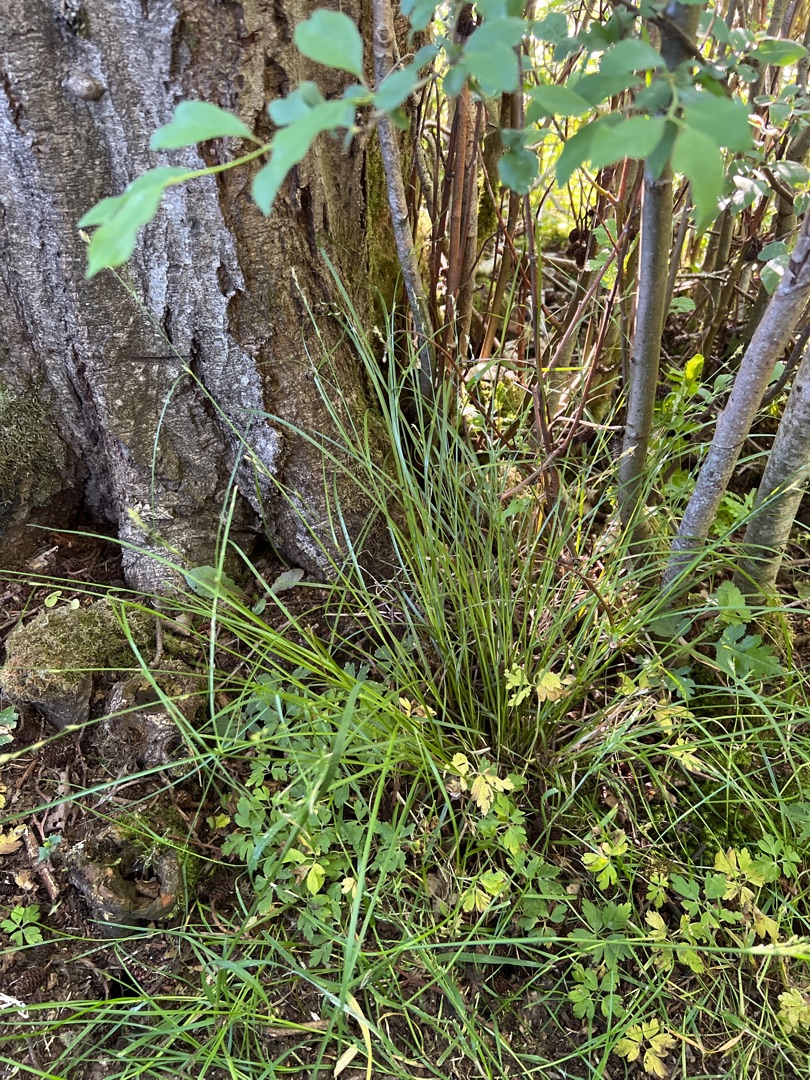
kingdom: Plantae
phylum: Tracheophyta
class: Liliopsida
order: Poales
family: Cyperaceae
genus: Carex
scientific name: Carex remota
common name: Akselblomstret star
